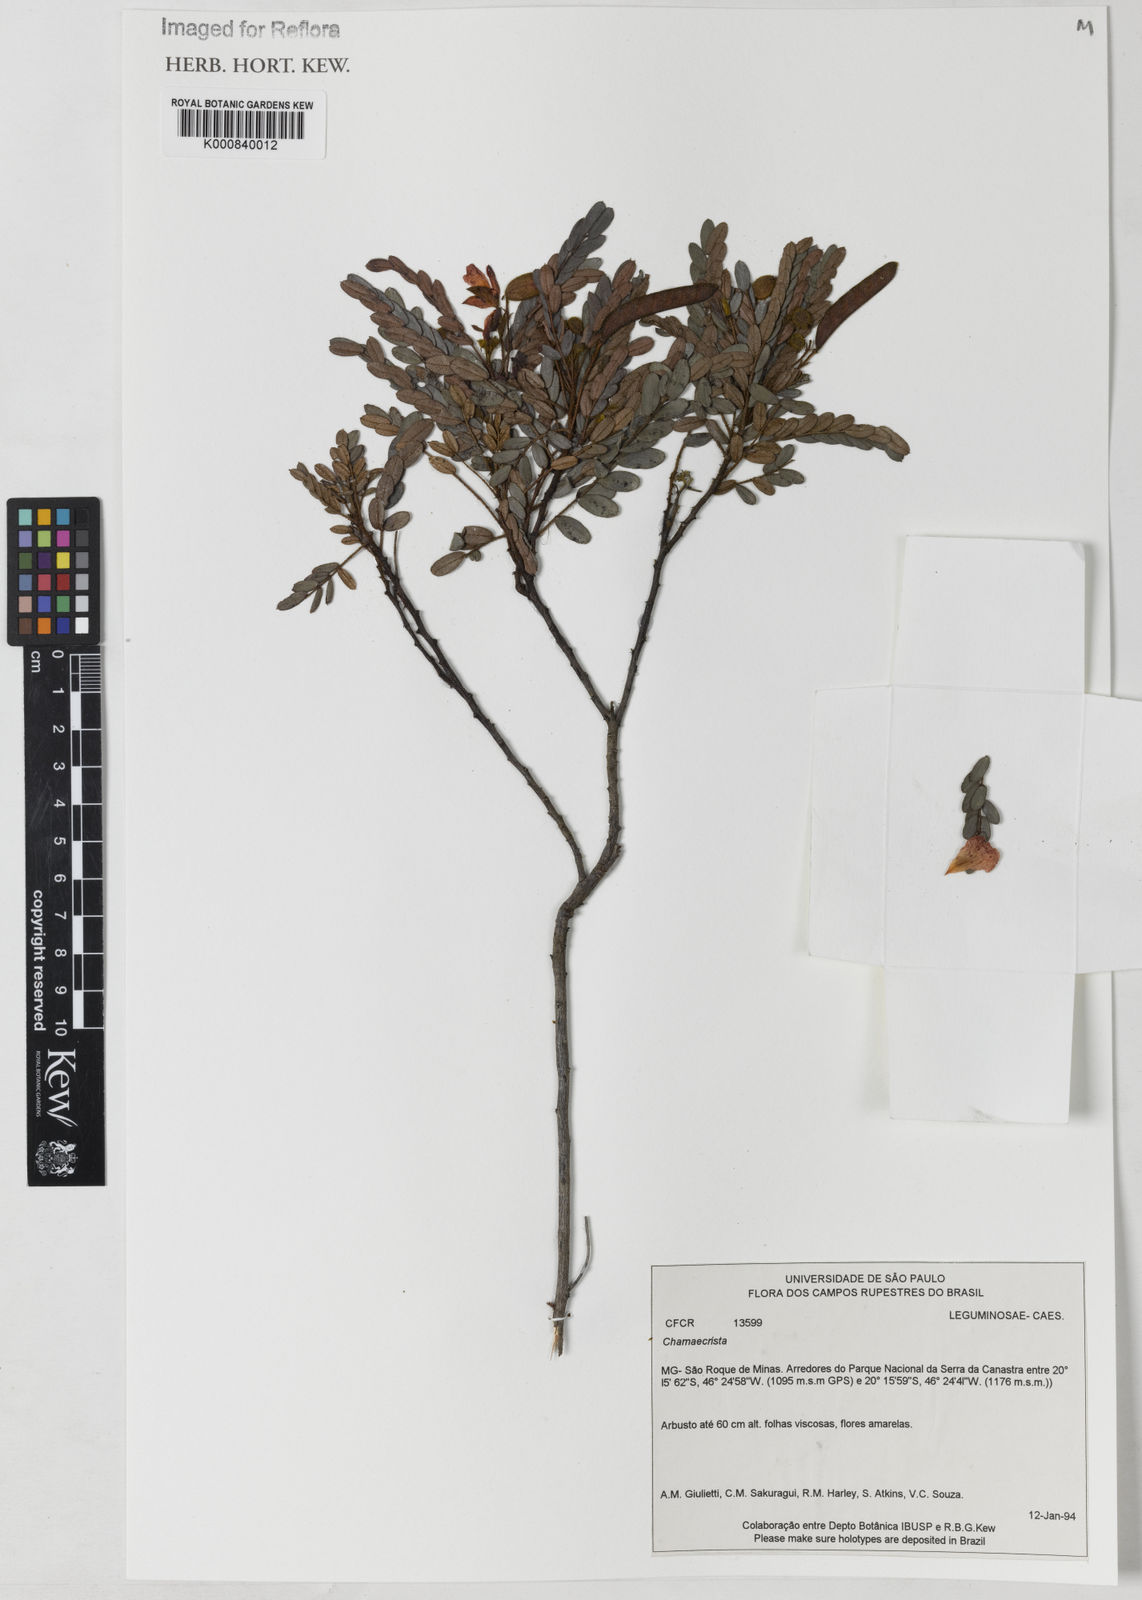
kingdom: Plantae
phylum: Tracheophyta
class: Magnoliopsida
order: Fabales
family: Fabaceae
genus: Chamaecrista
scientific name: Chamaecrista
